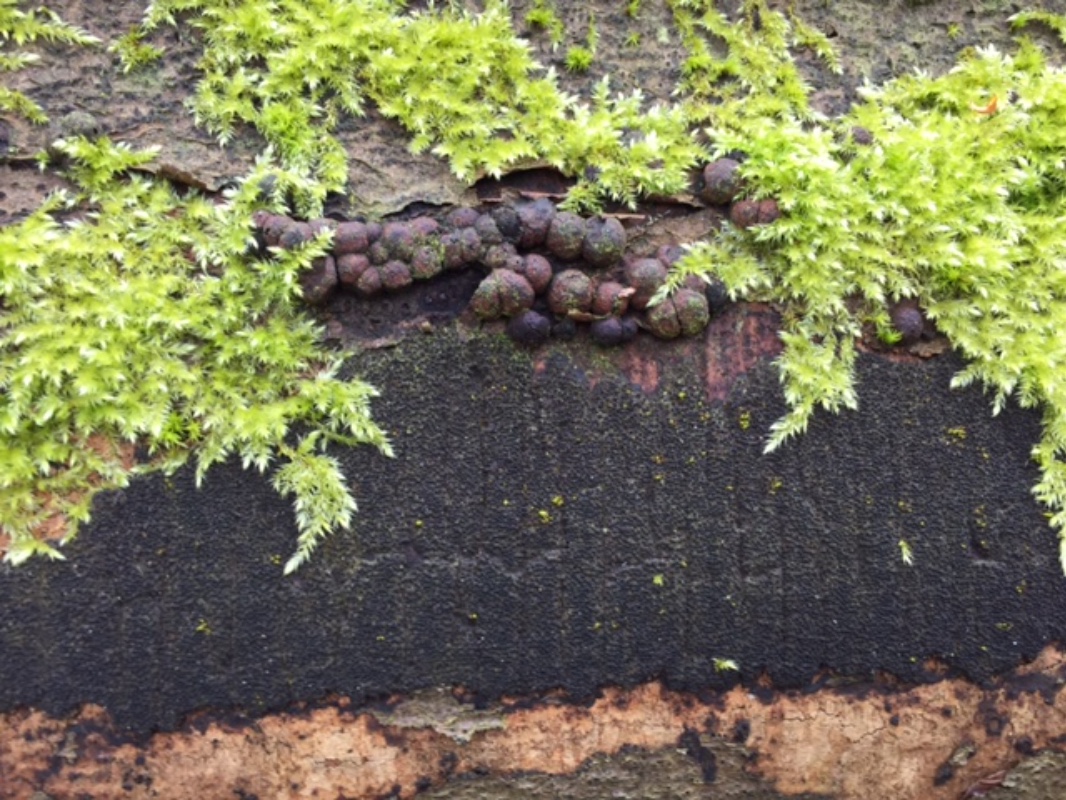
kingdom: Fungi
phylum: Ascomycota
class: Sordariomycetes
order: Xylariales
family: Diatrypaceae
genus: Eutypa
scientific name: Eutypa spinosa
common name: grov kulskorpe
